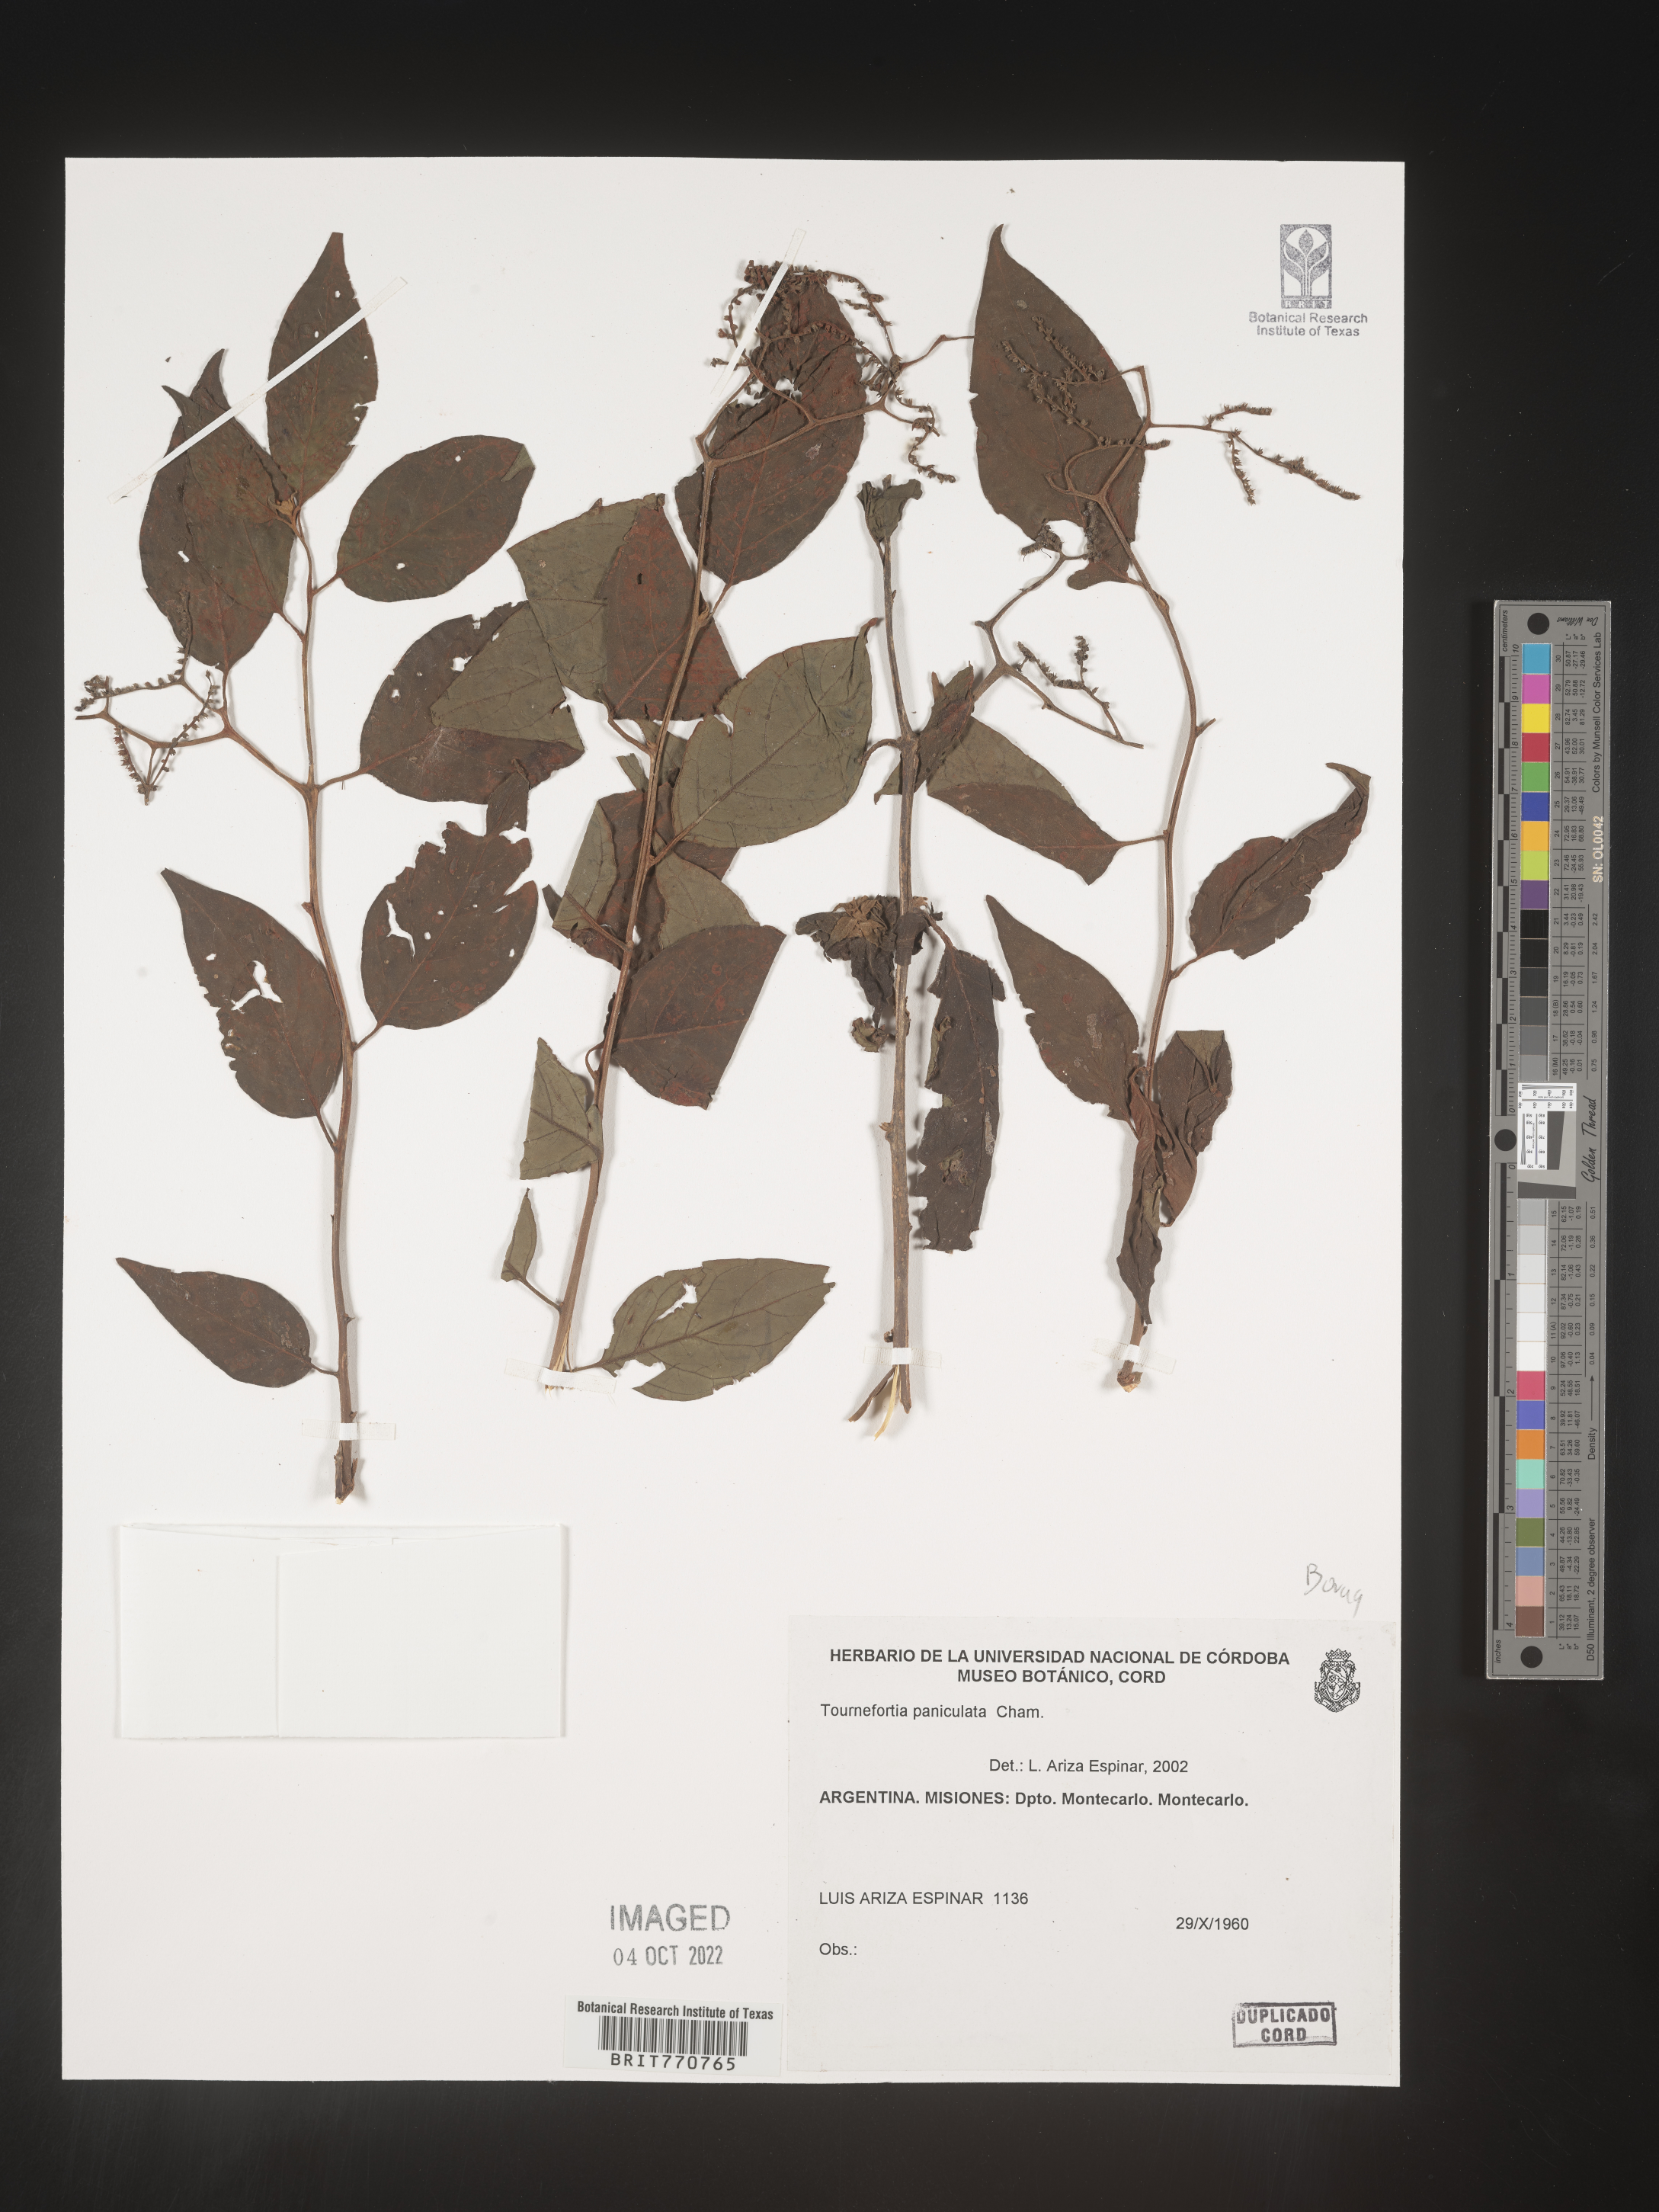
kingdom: Plantae
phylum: Tracheophyta
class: Magnoliopsida
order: Boraginales
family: Heliotropiaceae
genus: Tournefortia
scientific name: Tournefortia
